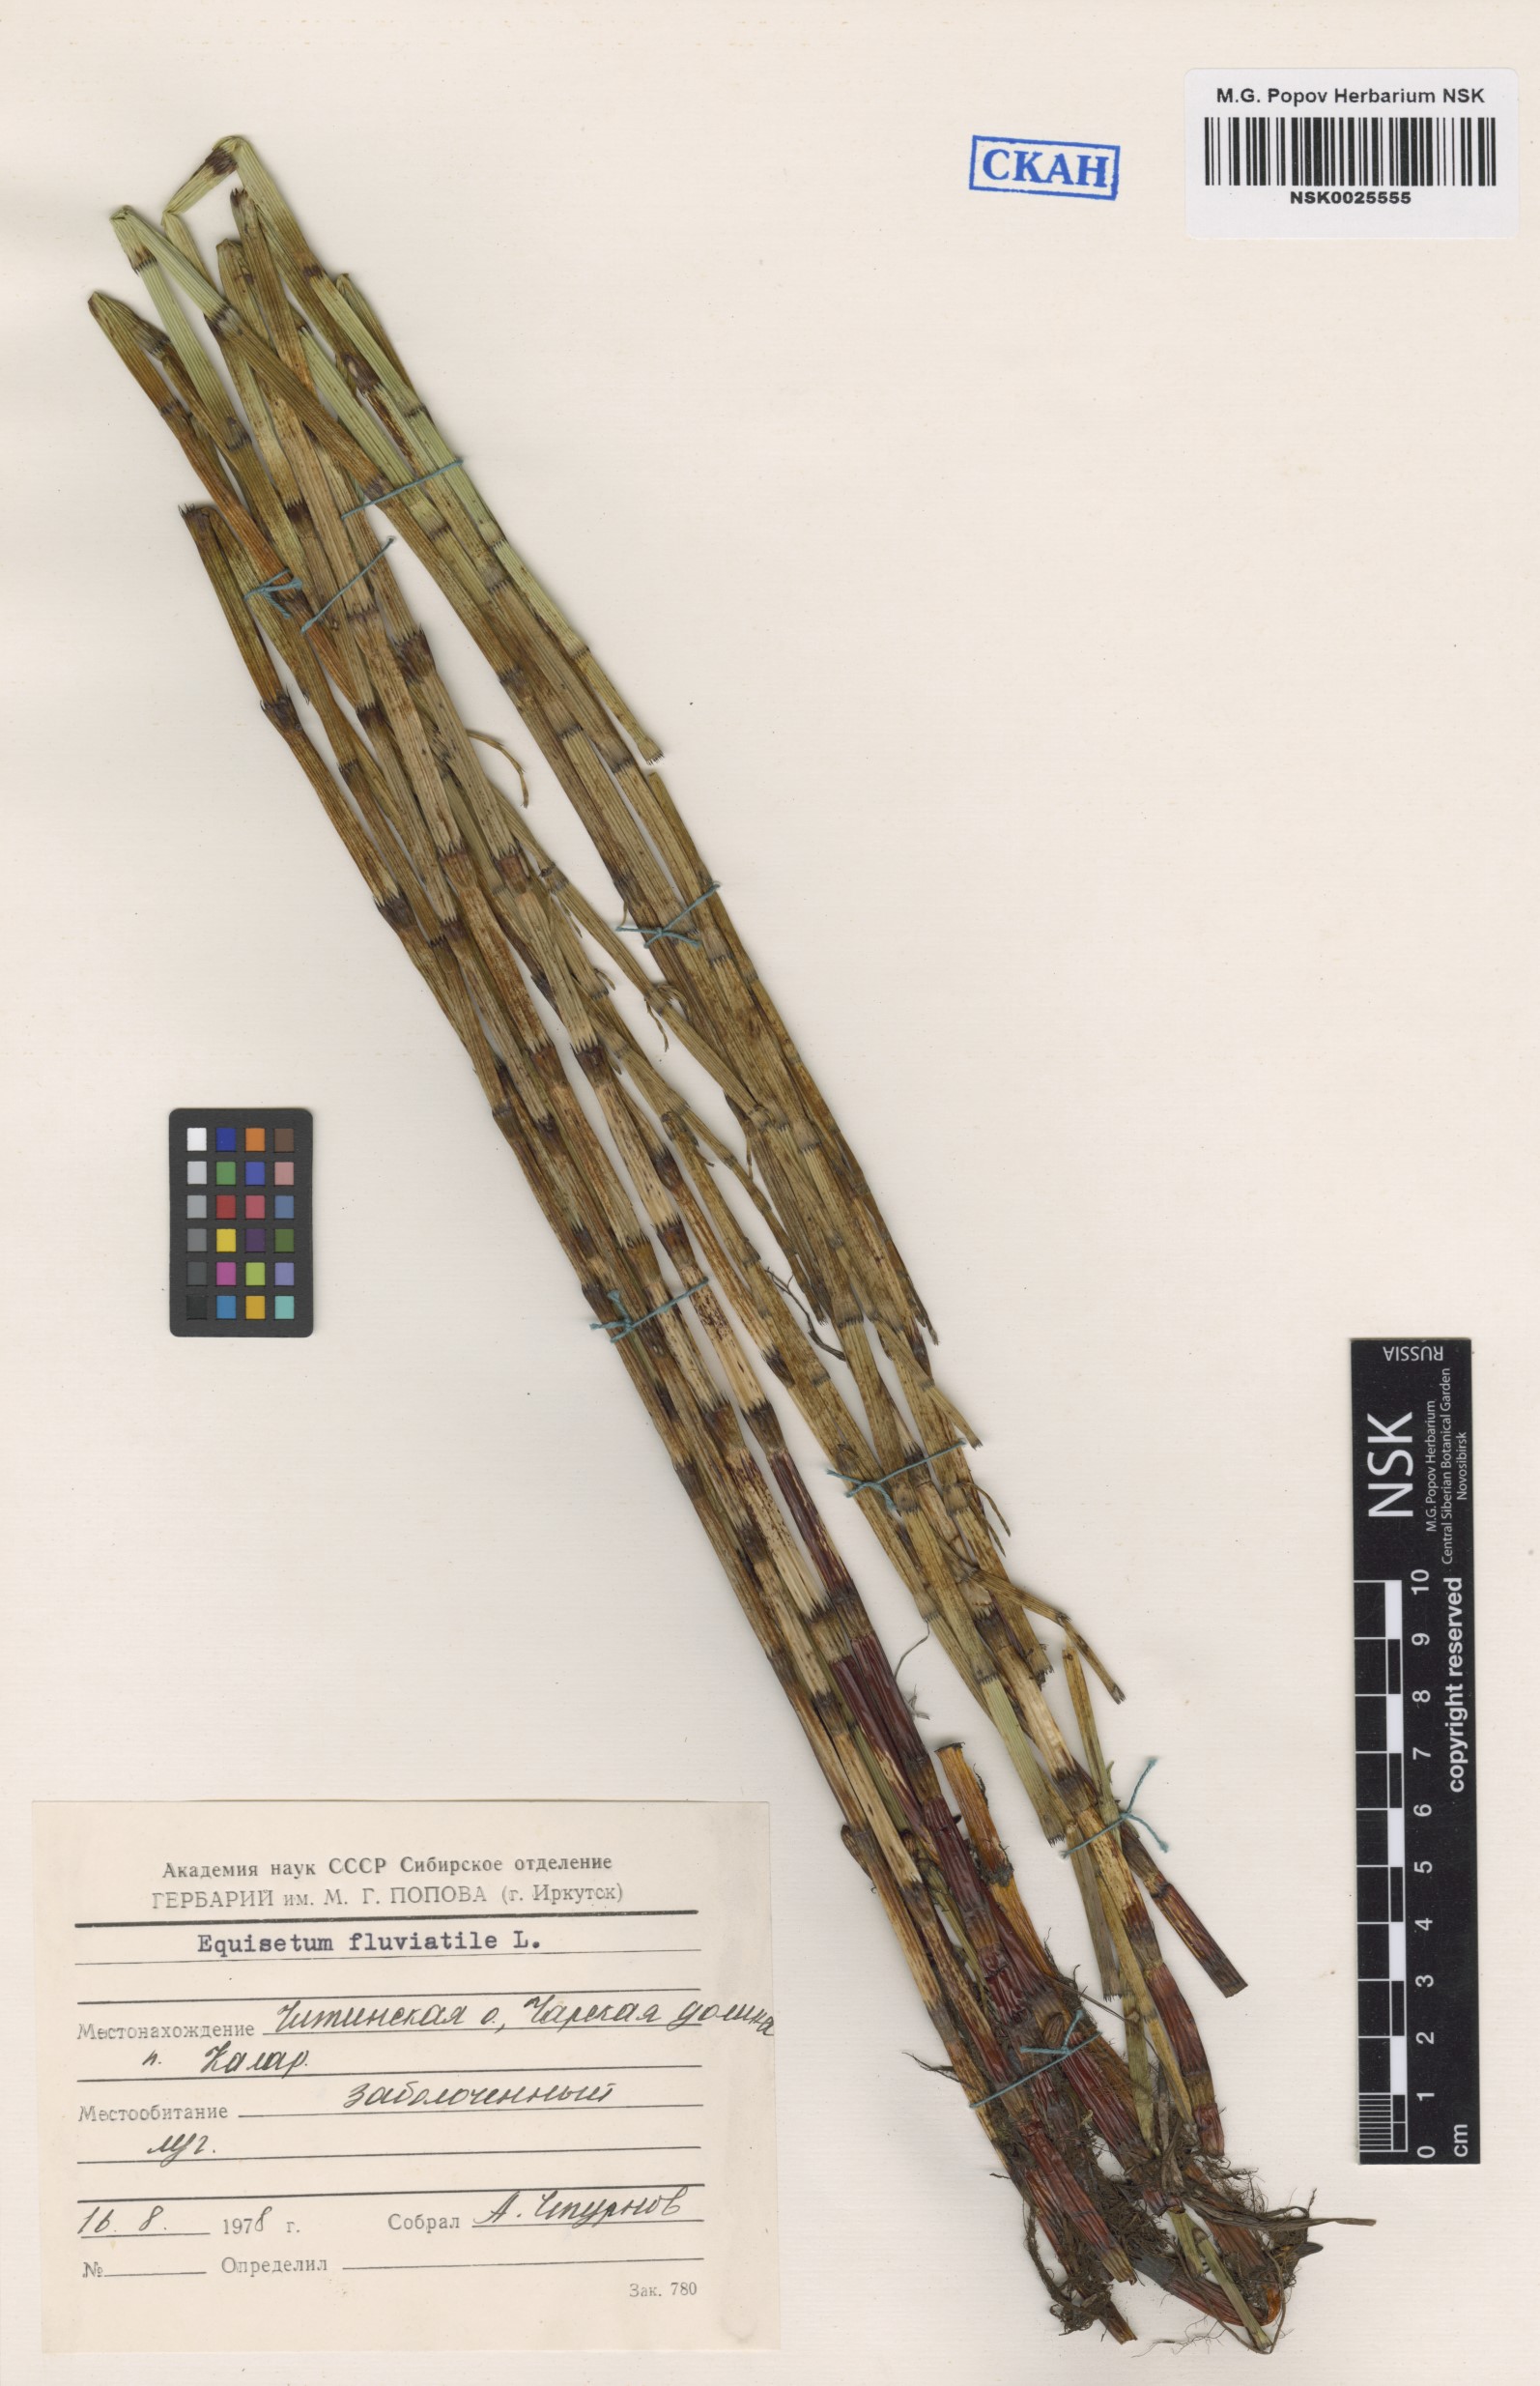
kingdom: Plantae
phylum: Tracheophyta
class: Polypodiopsida
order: Equisetales
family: Equisetaceae
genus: Equisetum
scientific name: Equisetum fluviatile
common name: Water horsetail
